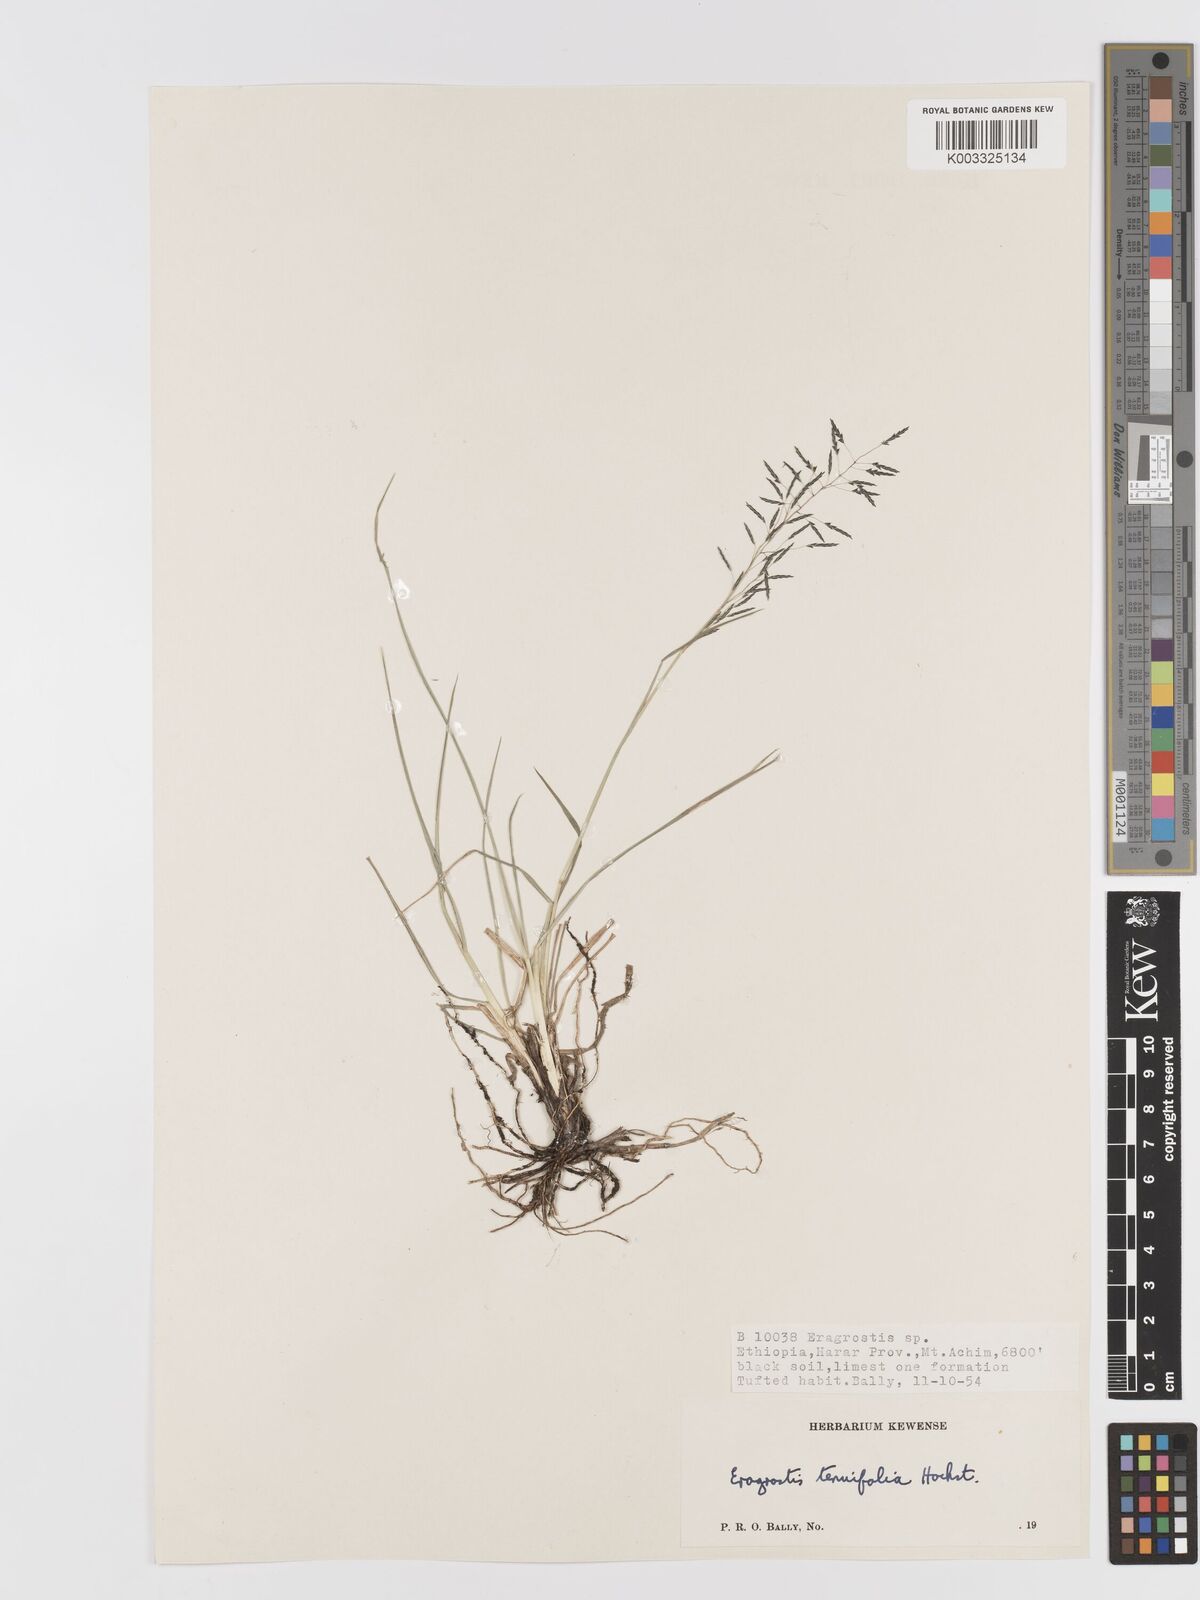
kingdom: Plantae
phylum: Tracheophyta
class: Liliopsida
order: Poales
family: Poaceae
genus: Eragrostis
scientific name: Eragrostis tenuifolia
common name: Elastic grass
